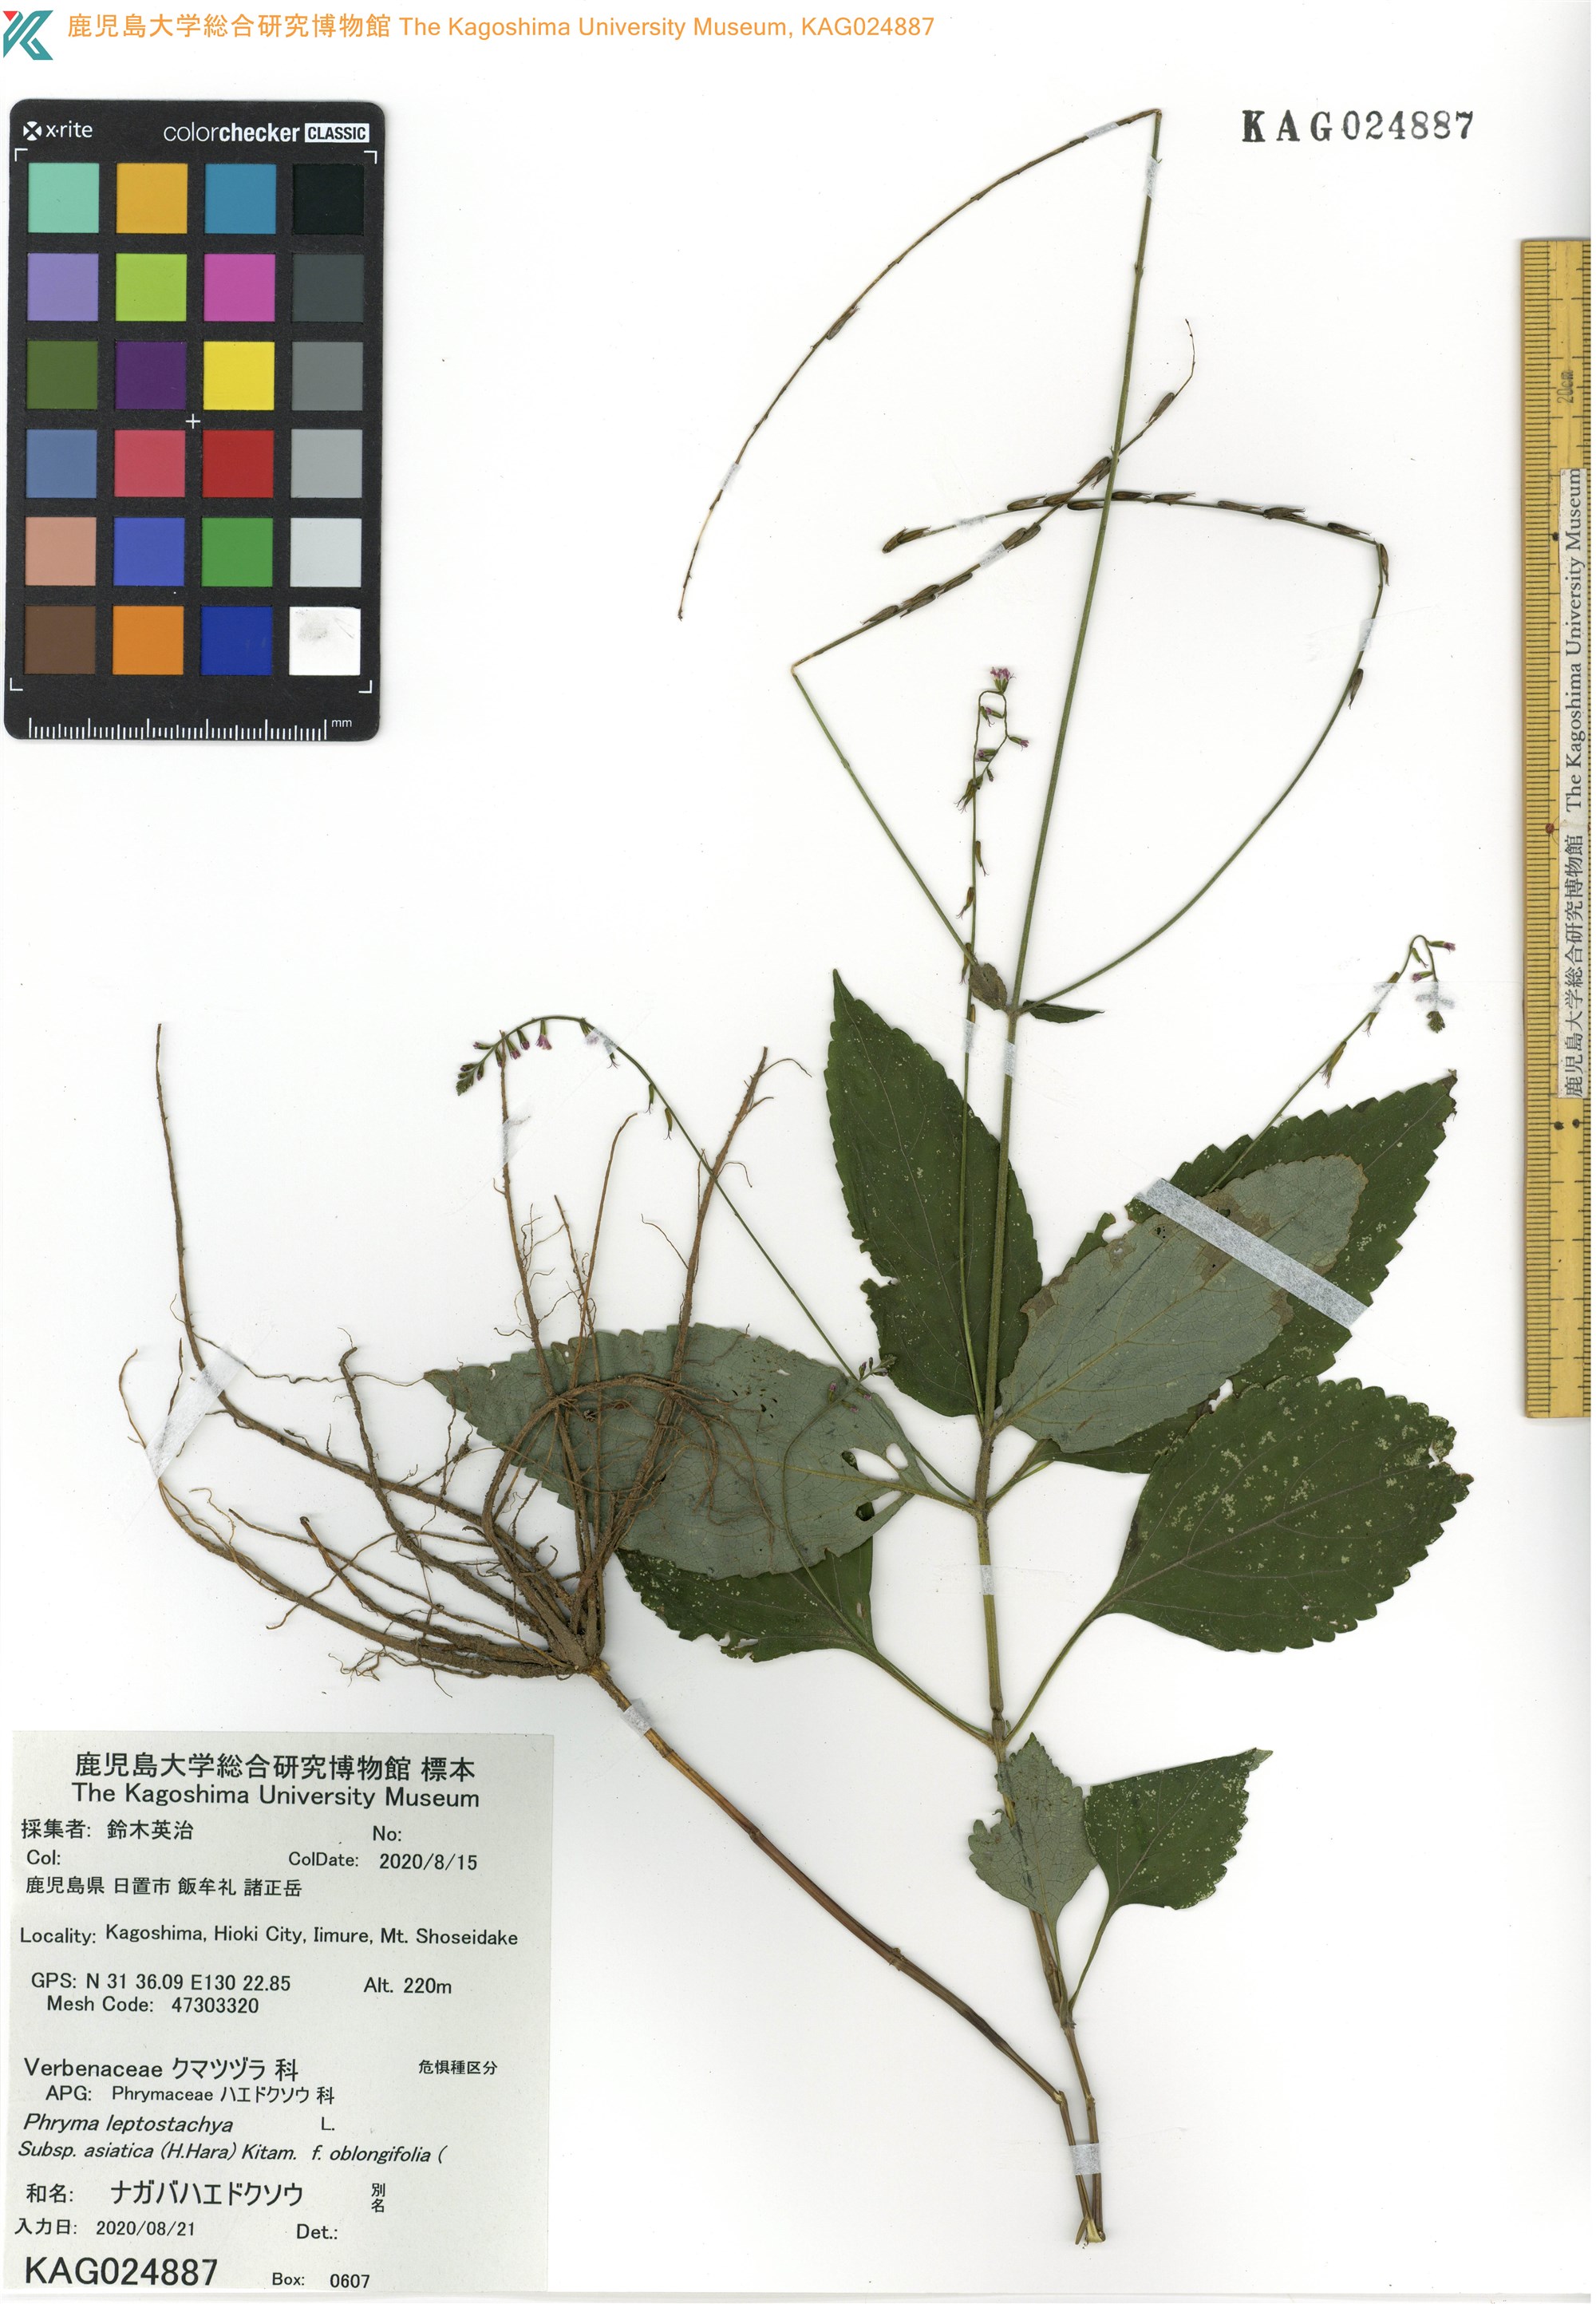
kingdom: Plantae
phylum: Tracheophyta
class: Magnoliopsida
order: Lamiales
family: Phrymaceae
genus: Phryma
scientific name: Phryma oblongifolia
